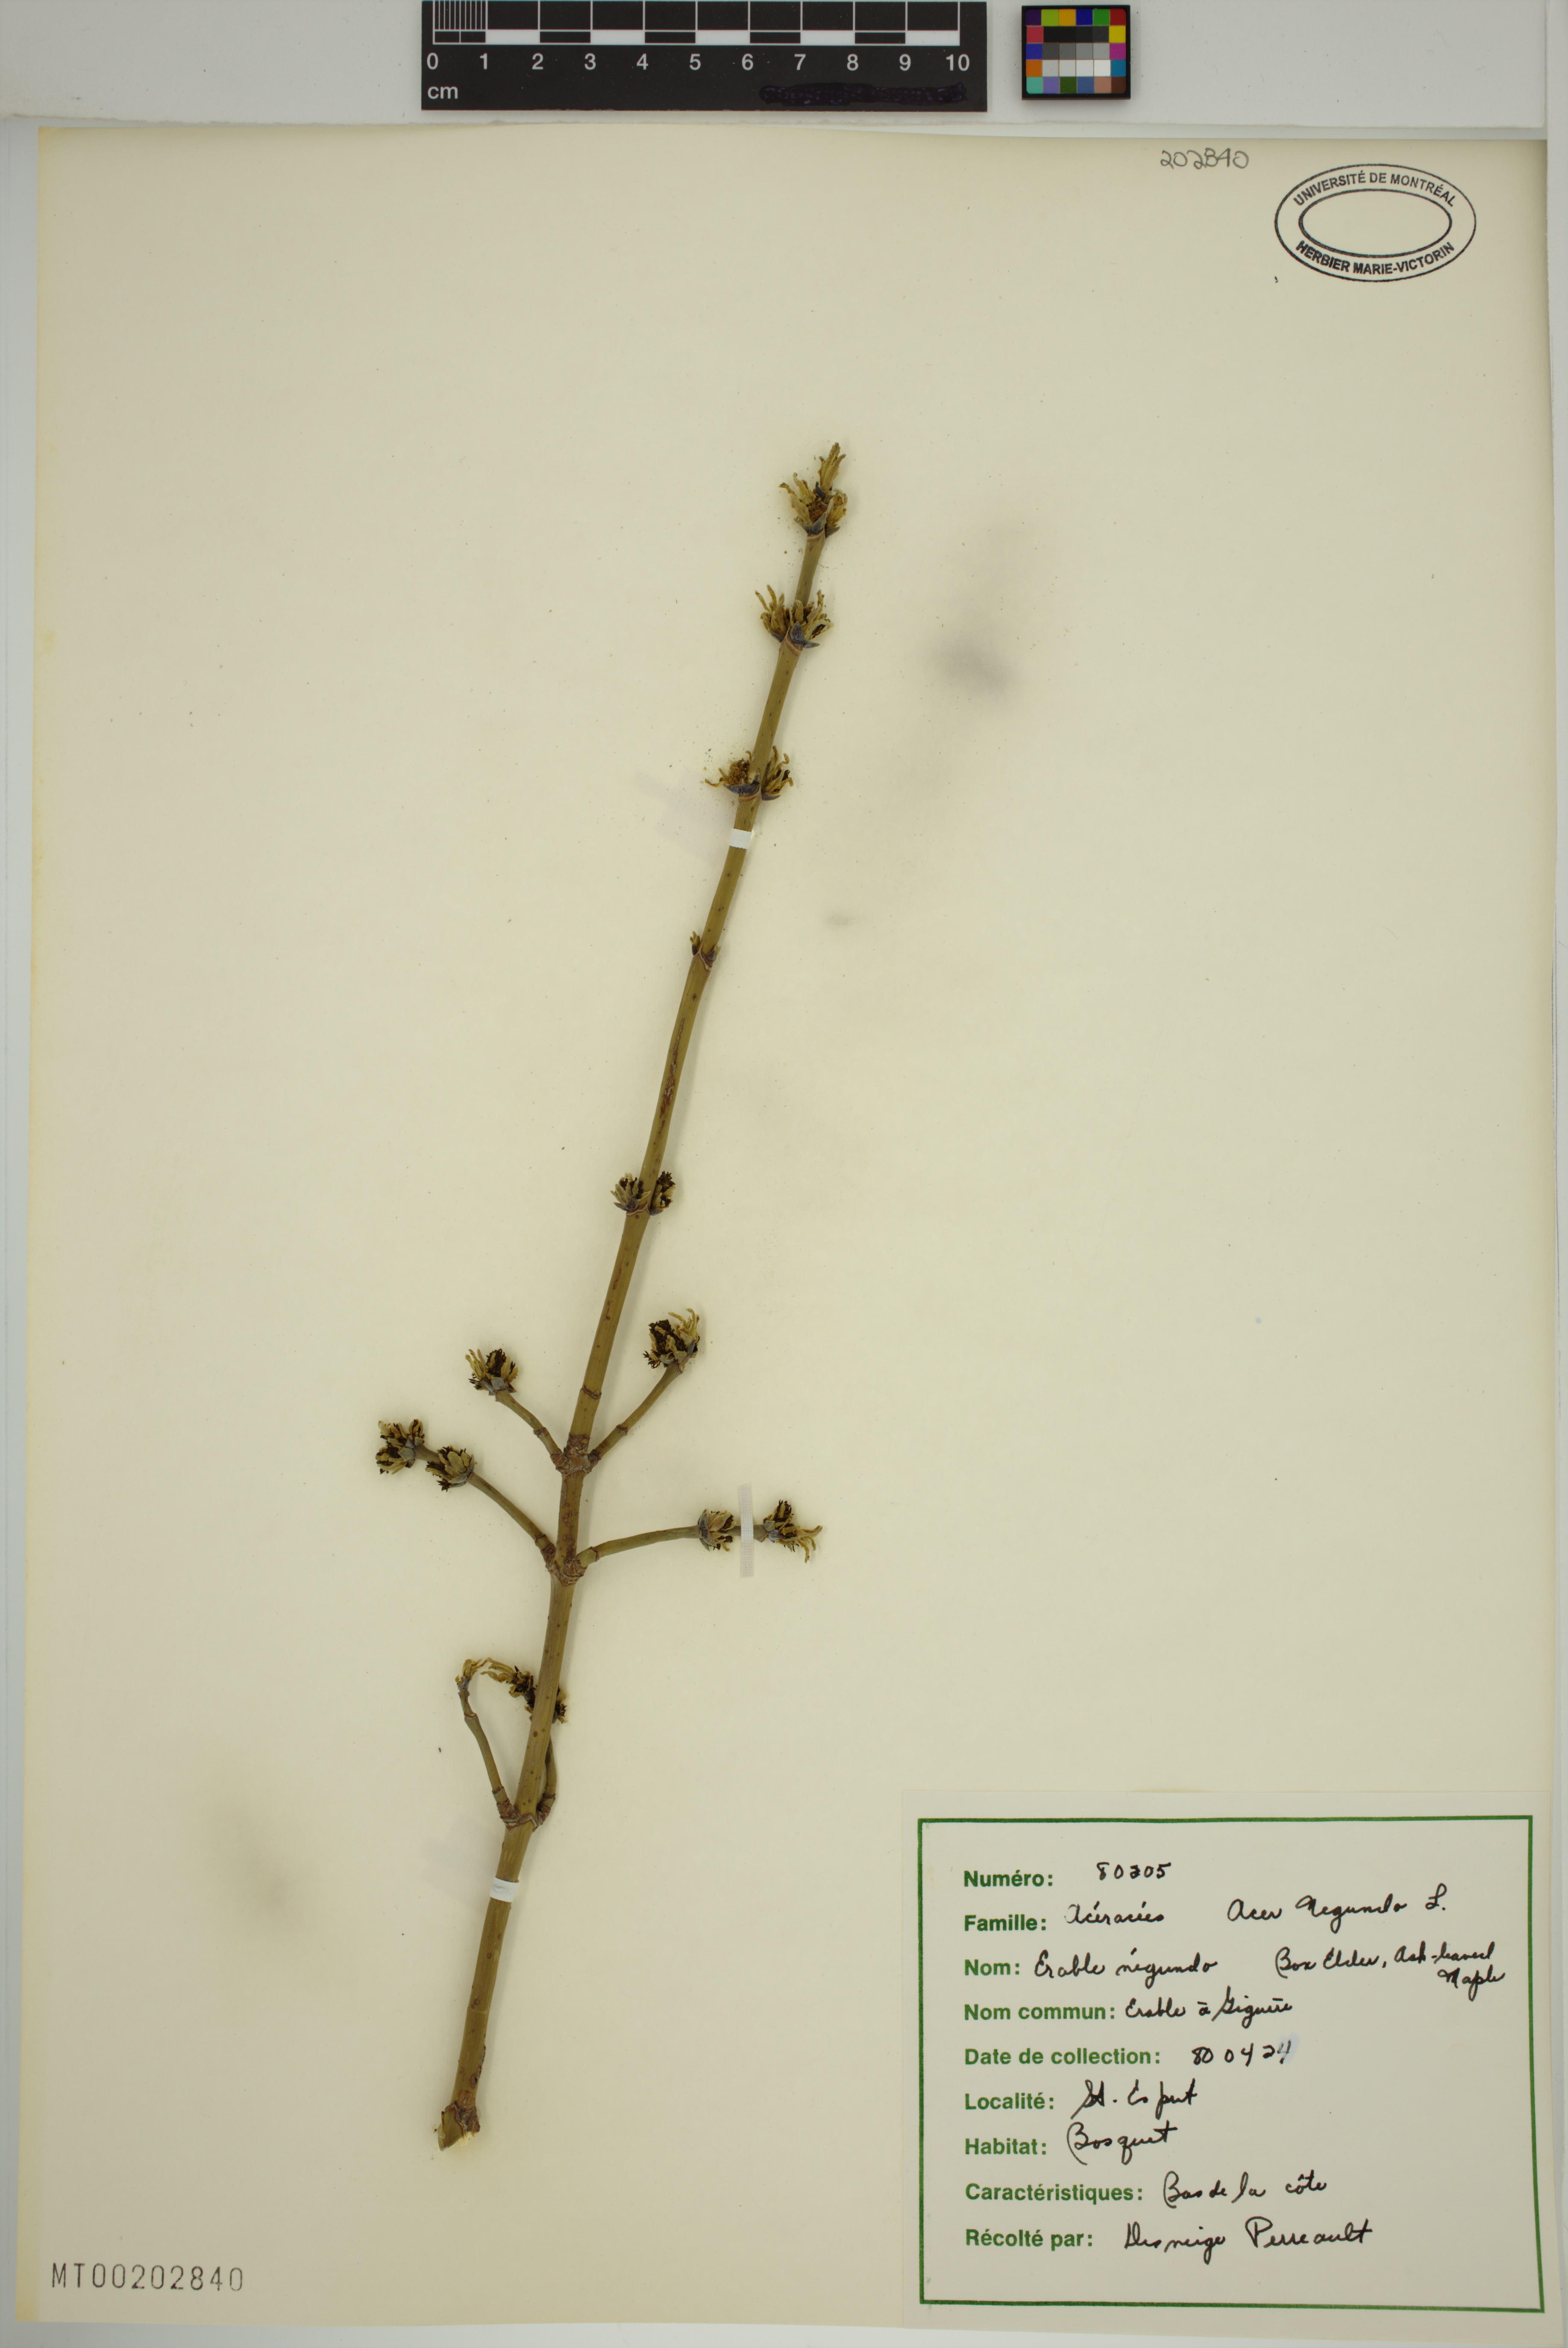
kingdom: Plantae
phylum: Tracheophyta
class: Magnoliopsida
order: Sapindales
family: Sapindaceae
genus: Acer
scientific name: Acer negundo
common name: Ashleaf maple
